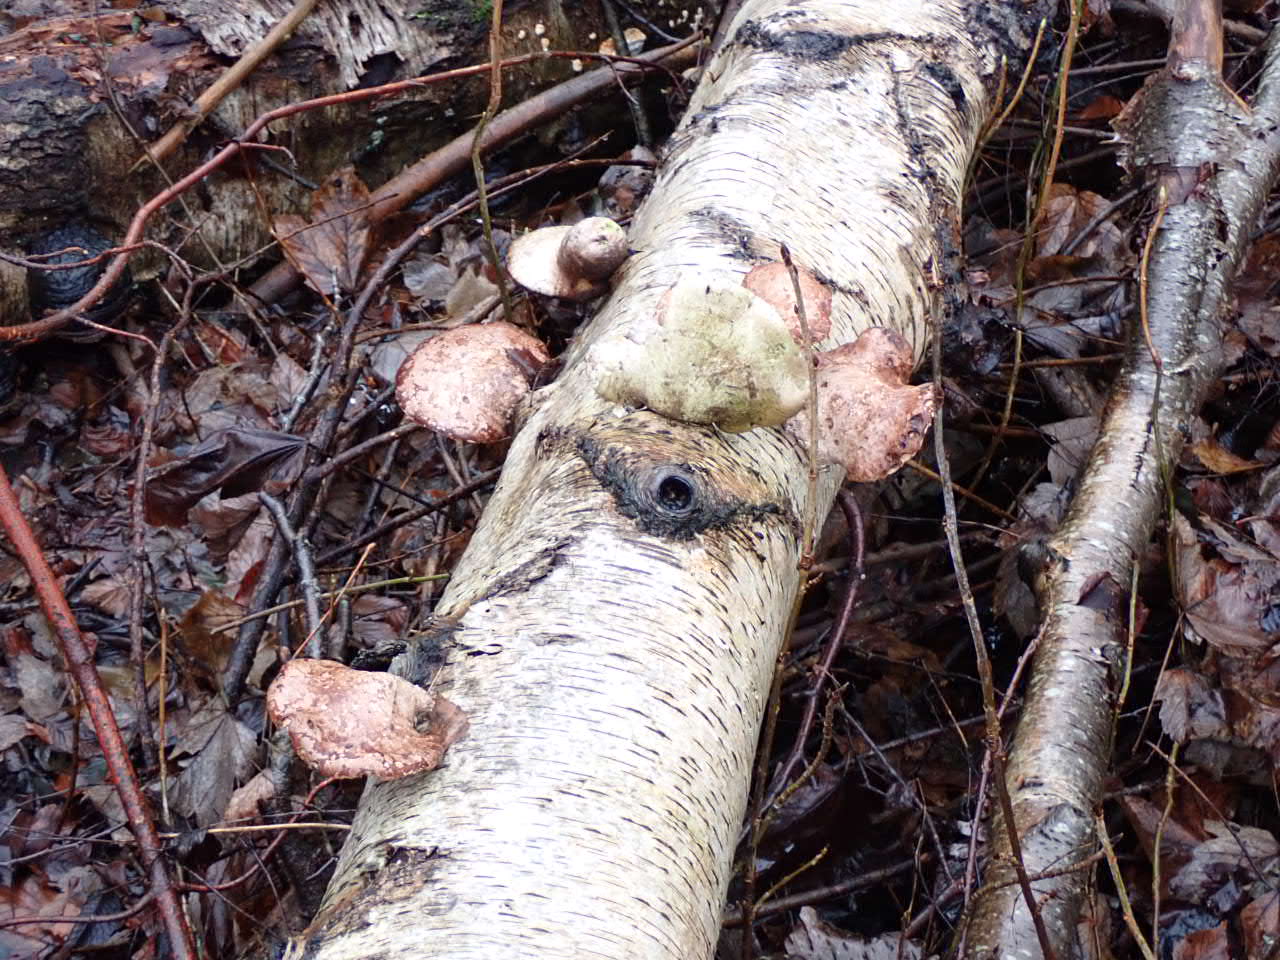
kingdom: Fungi
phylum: Basidiomycota
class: Agaricomycetes
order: Polyporales
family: Fomitopsidaceae
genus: Fomitopsis
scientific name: Fomitopsis betulina
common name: birkeporesvamp
